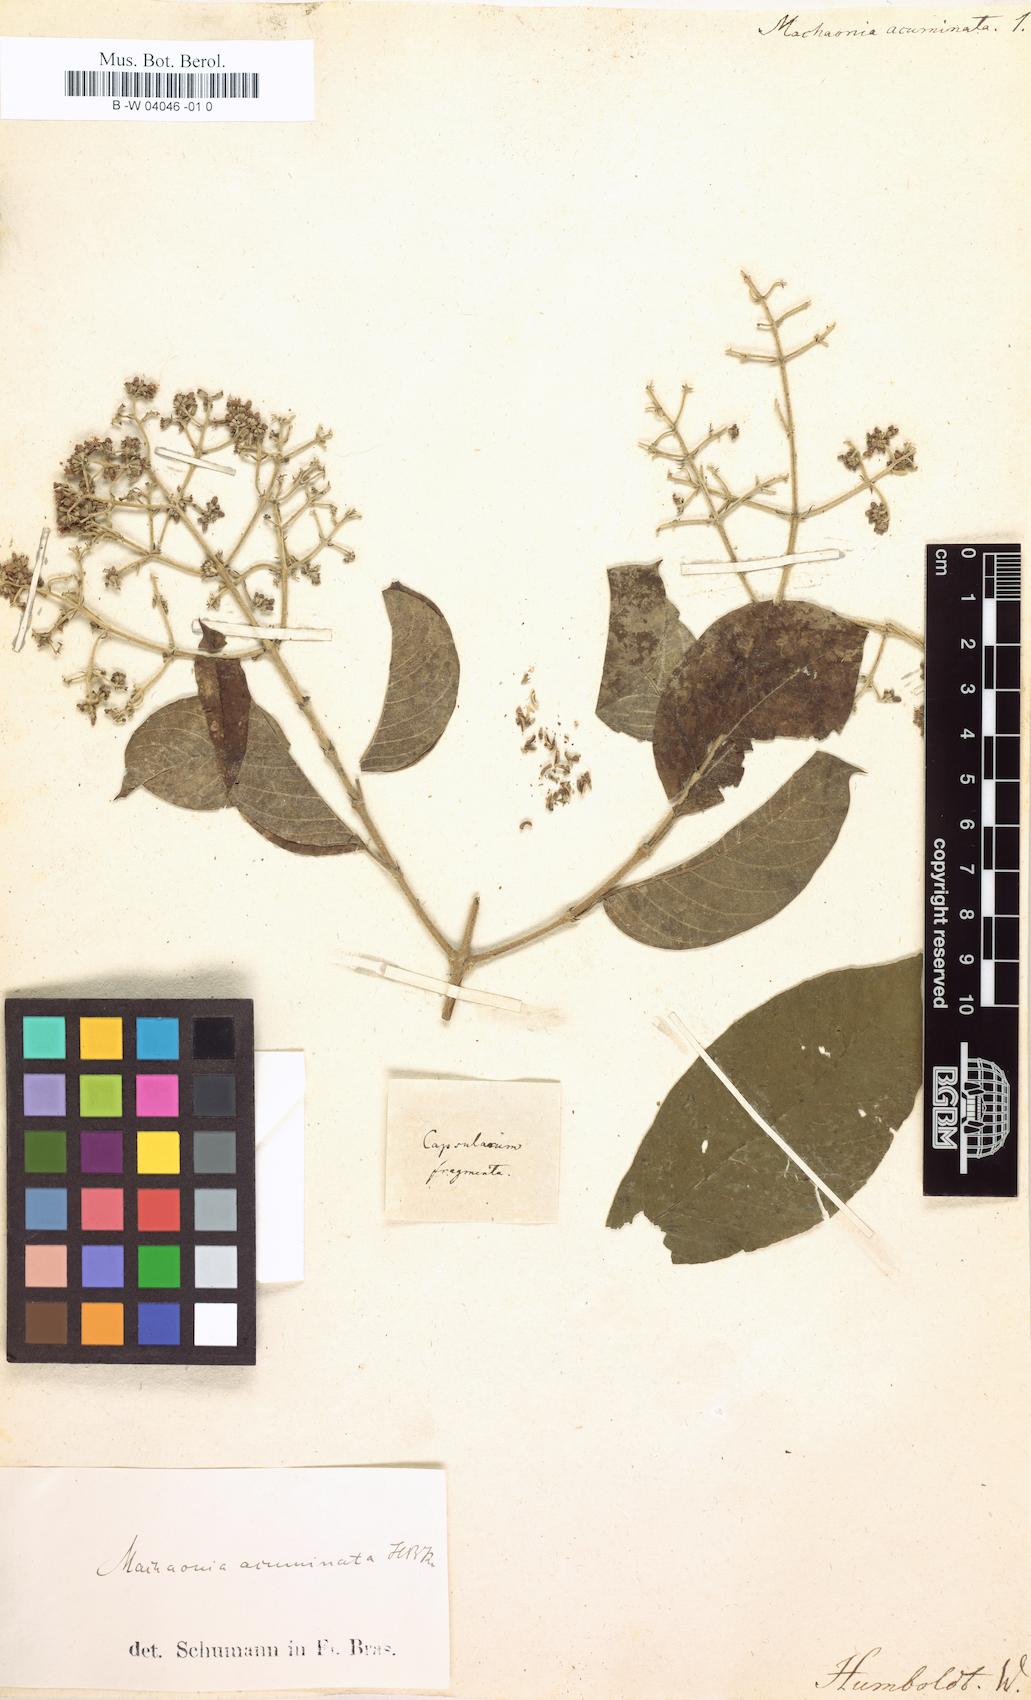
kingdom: Plantae
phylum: Tracheophyta
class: Magnoliopsida
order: Gentianales
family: Rubiaceae
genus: Machaonia
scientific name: Machaonia acuminata
